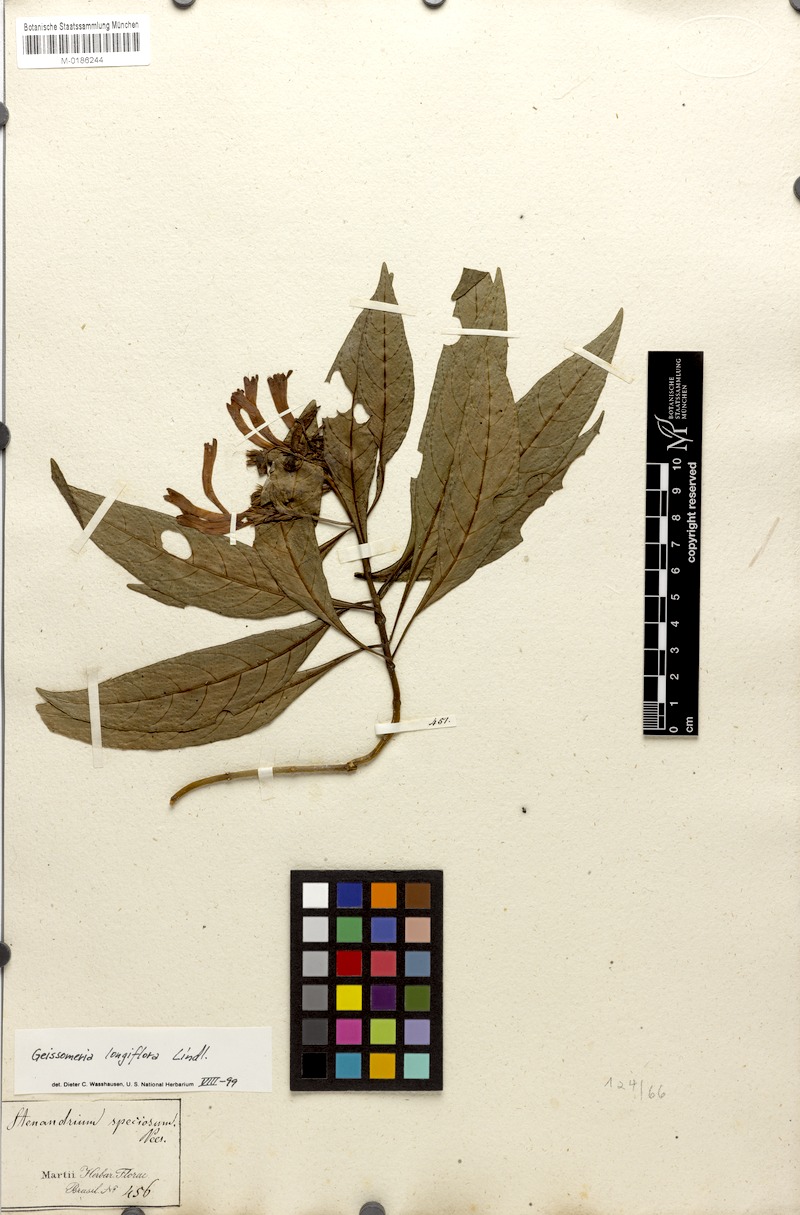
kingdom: Plantae
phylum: Tracheophyta
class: Magnoliopsida
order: Lamiales
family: Acanthaceae
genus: Aphelandra
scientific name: Aphelandra longiflora
